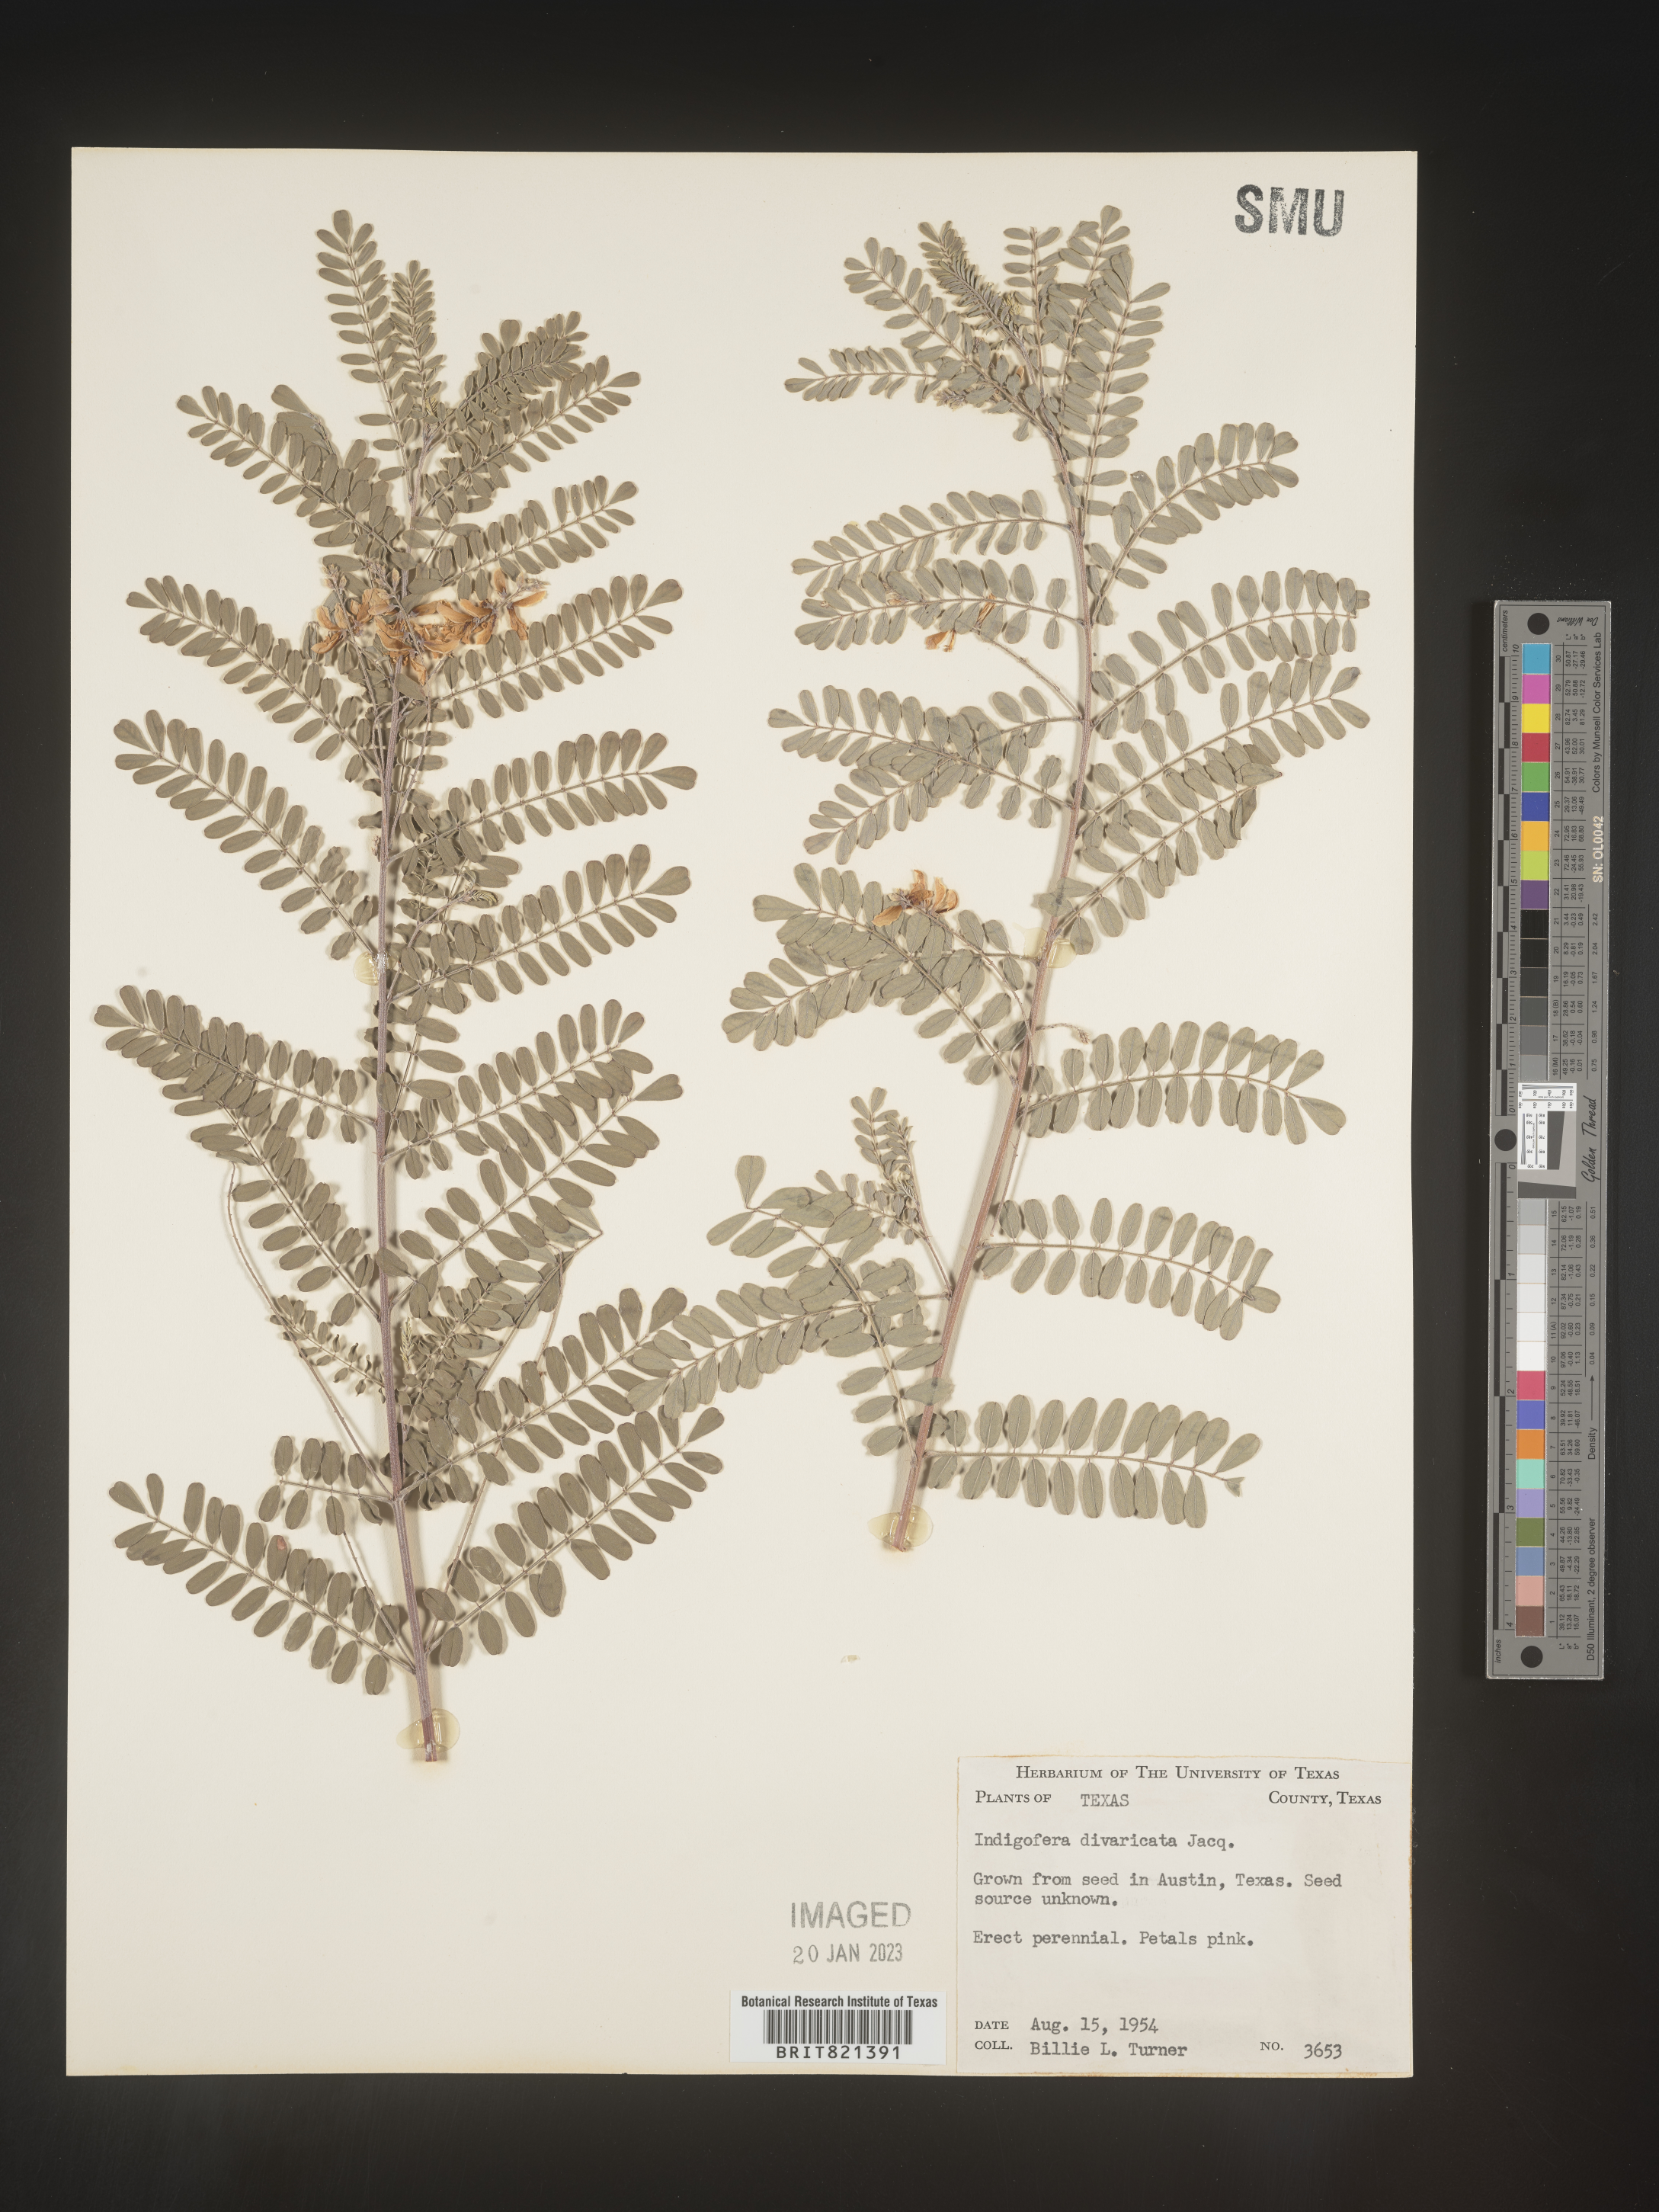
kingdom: Plantae
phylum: Tracheophyta
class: Magnoliopsida
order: Fabales
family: Fabaceae
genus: Indigofera
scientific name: Indigofera
